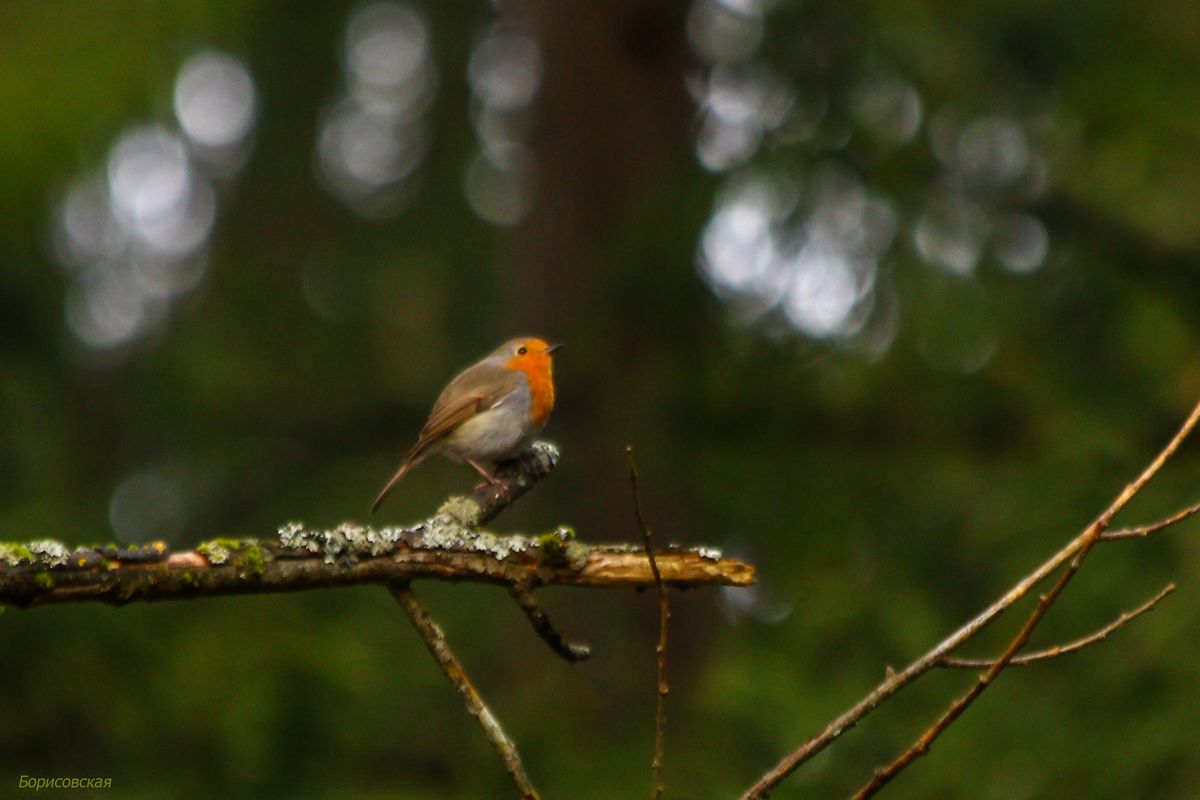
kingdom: Animalia
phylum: Chordata
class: Aves
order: Passeriformes
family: Muscicapidae
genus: Erithacus
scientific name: Erithacus rubecula
